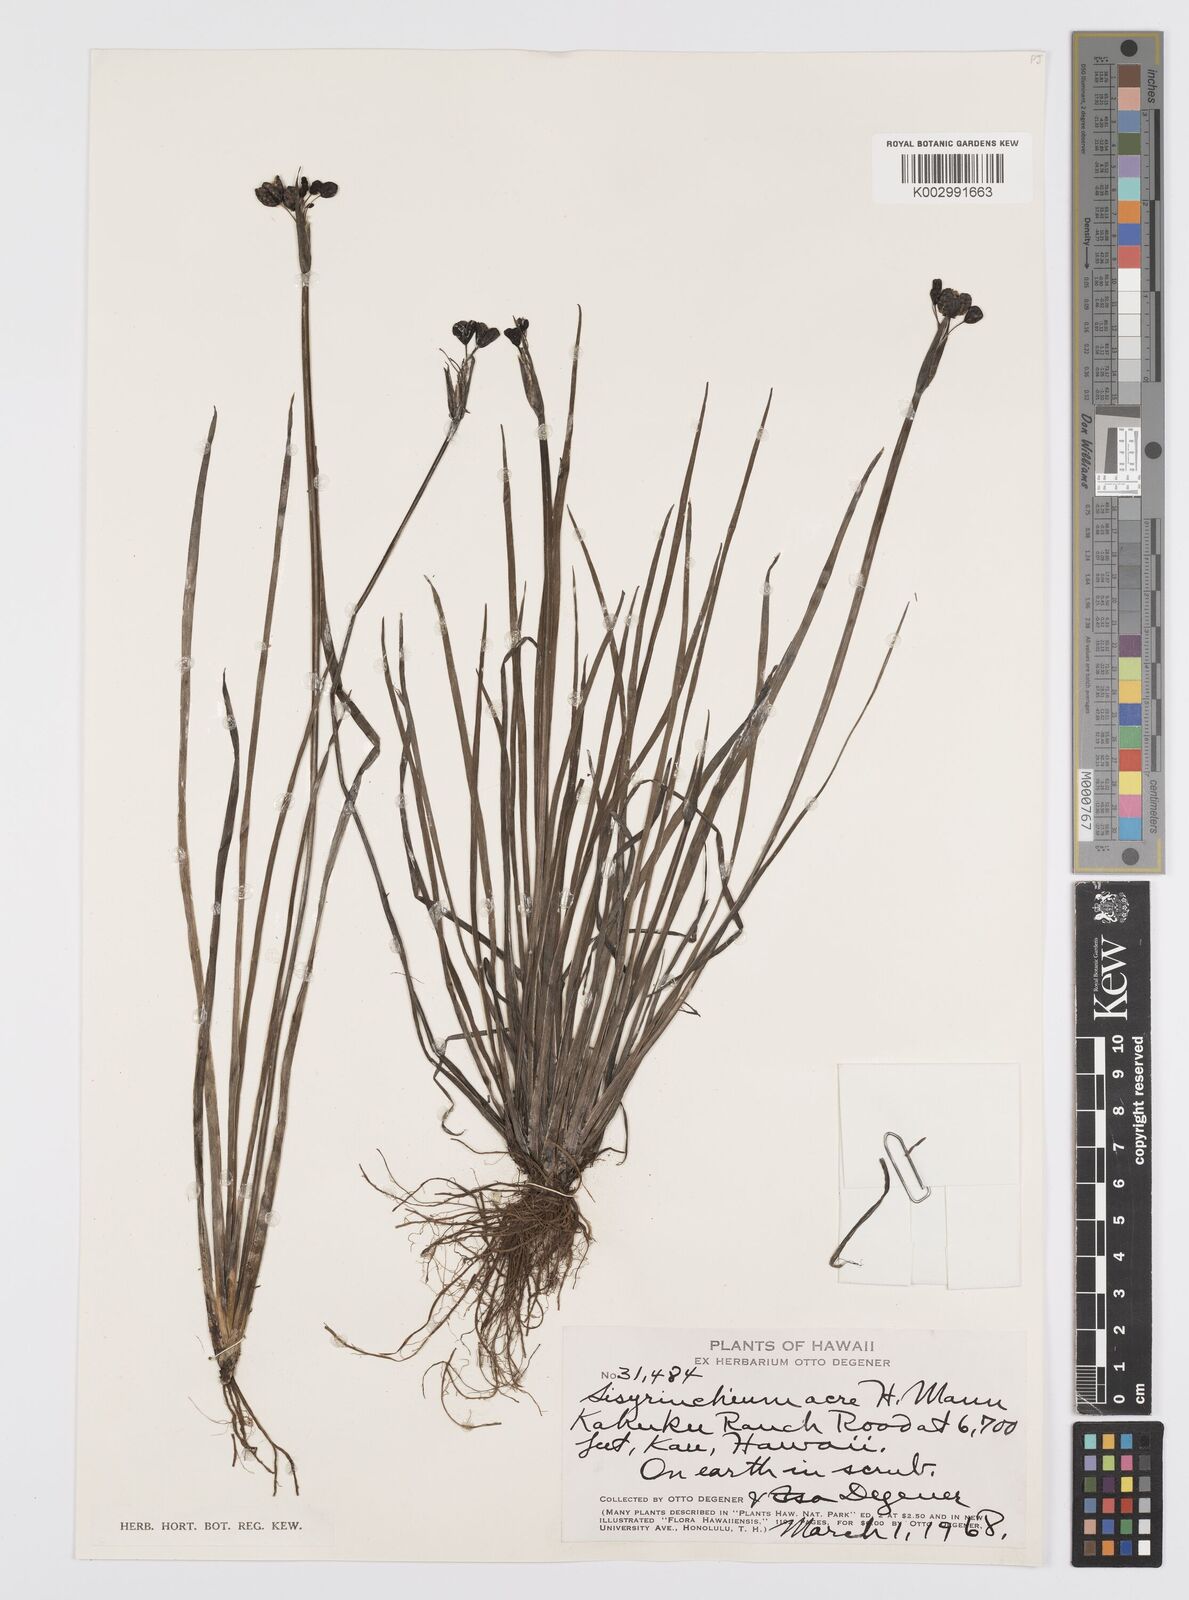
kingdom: Plantae
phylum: Tracheophyta
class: Liliopsida
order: Asparagales
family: Iridaceae
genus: Sisyrinchium
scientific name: Sisyrinchium acre
